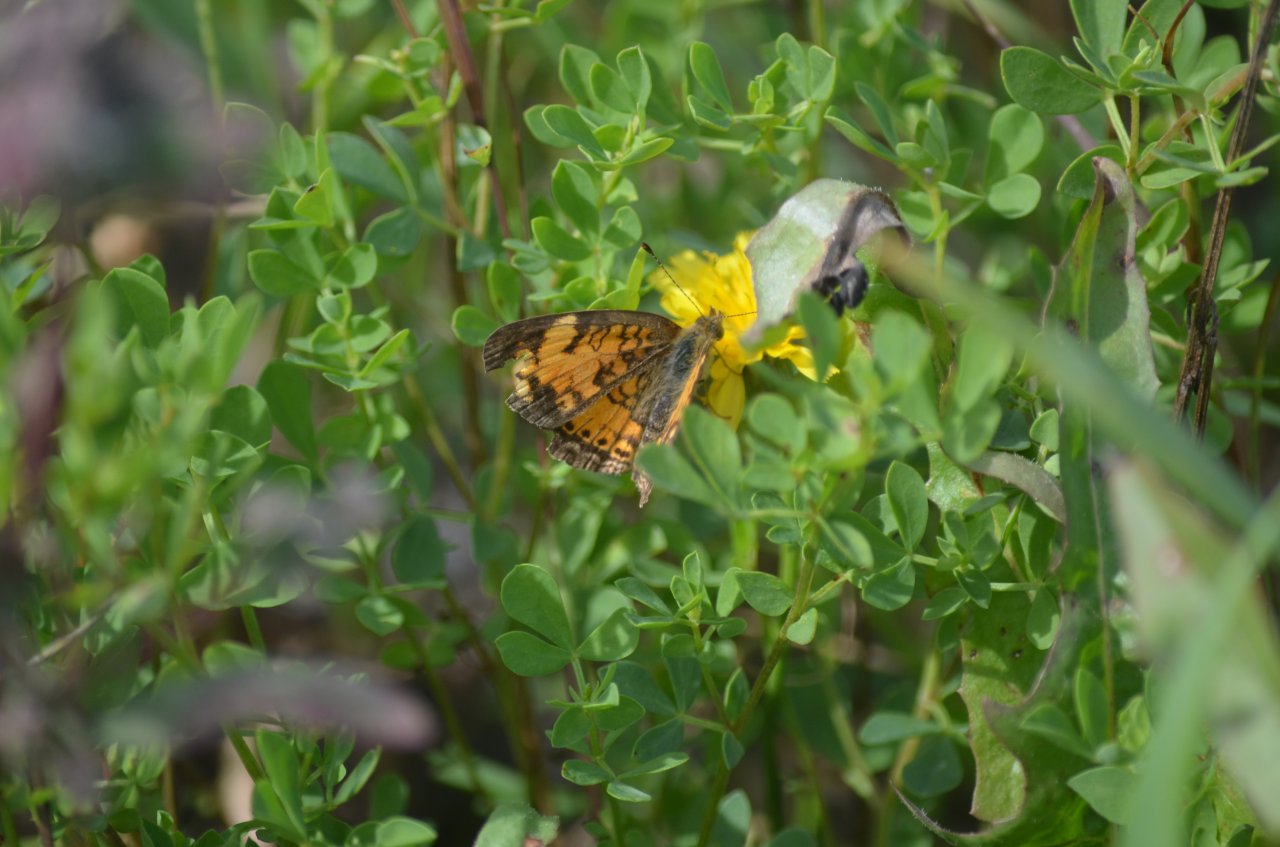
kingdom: Animalia
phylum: Arthropoda
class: Insecta
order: Lepidoptera
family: Nymphalidae
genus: Phyciodes
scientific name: Phyciodes tharos
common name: Northern Crescent
